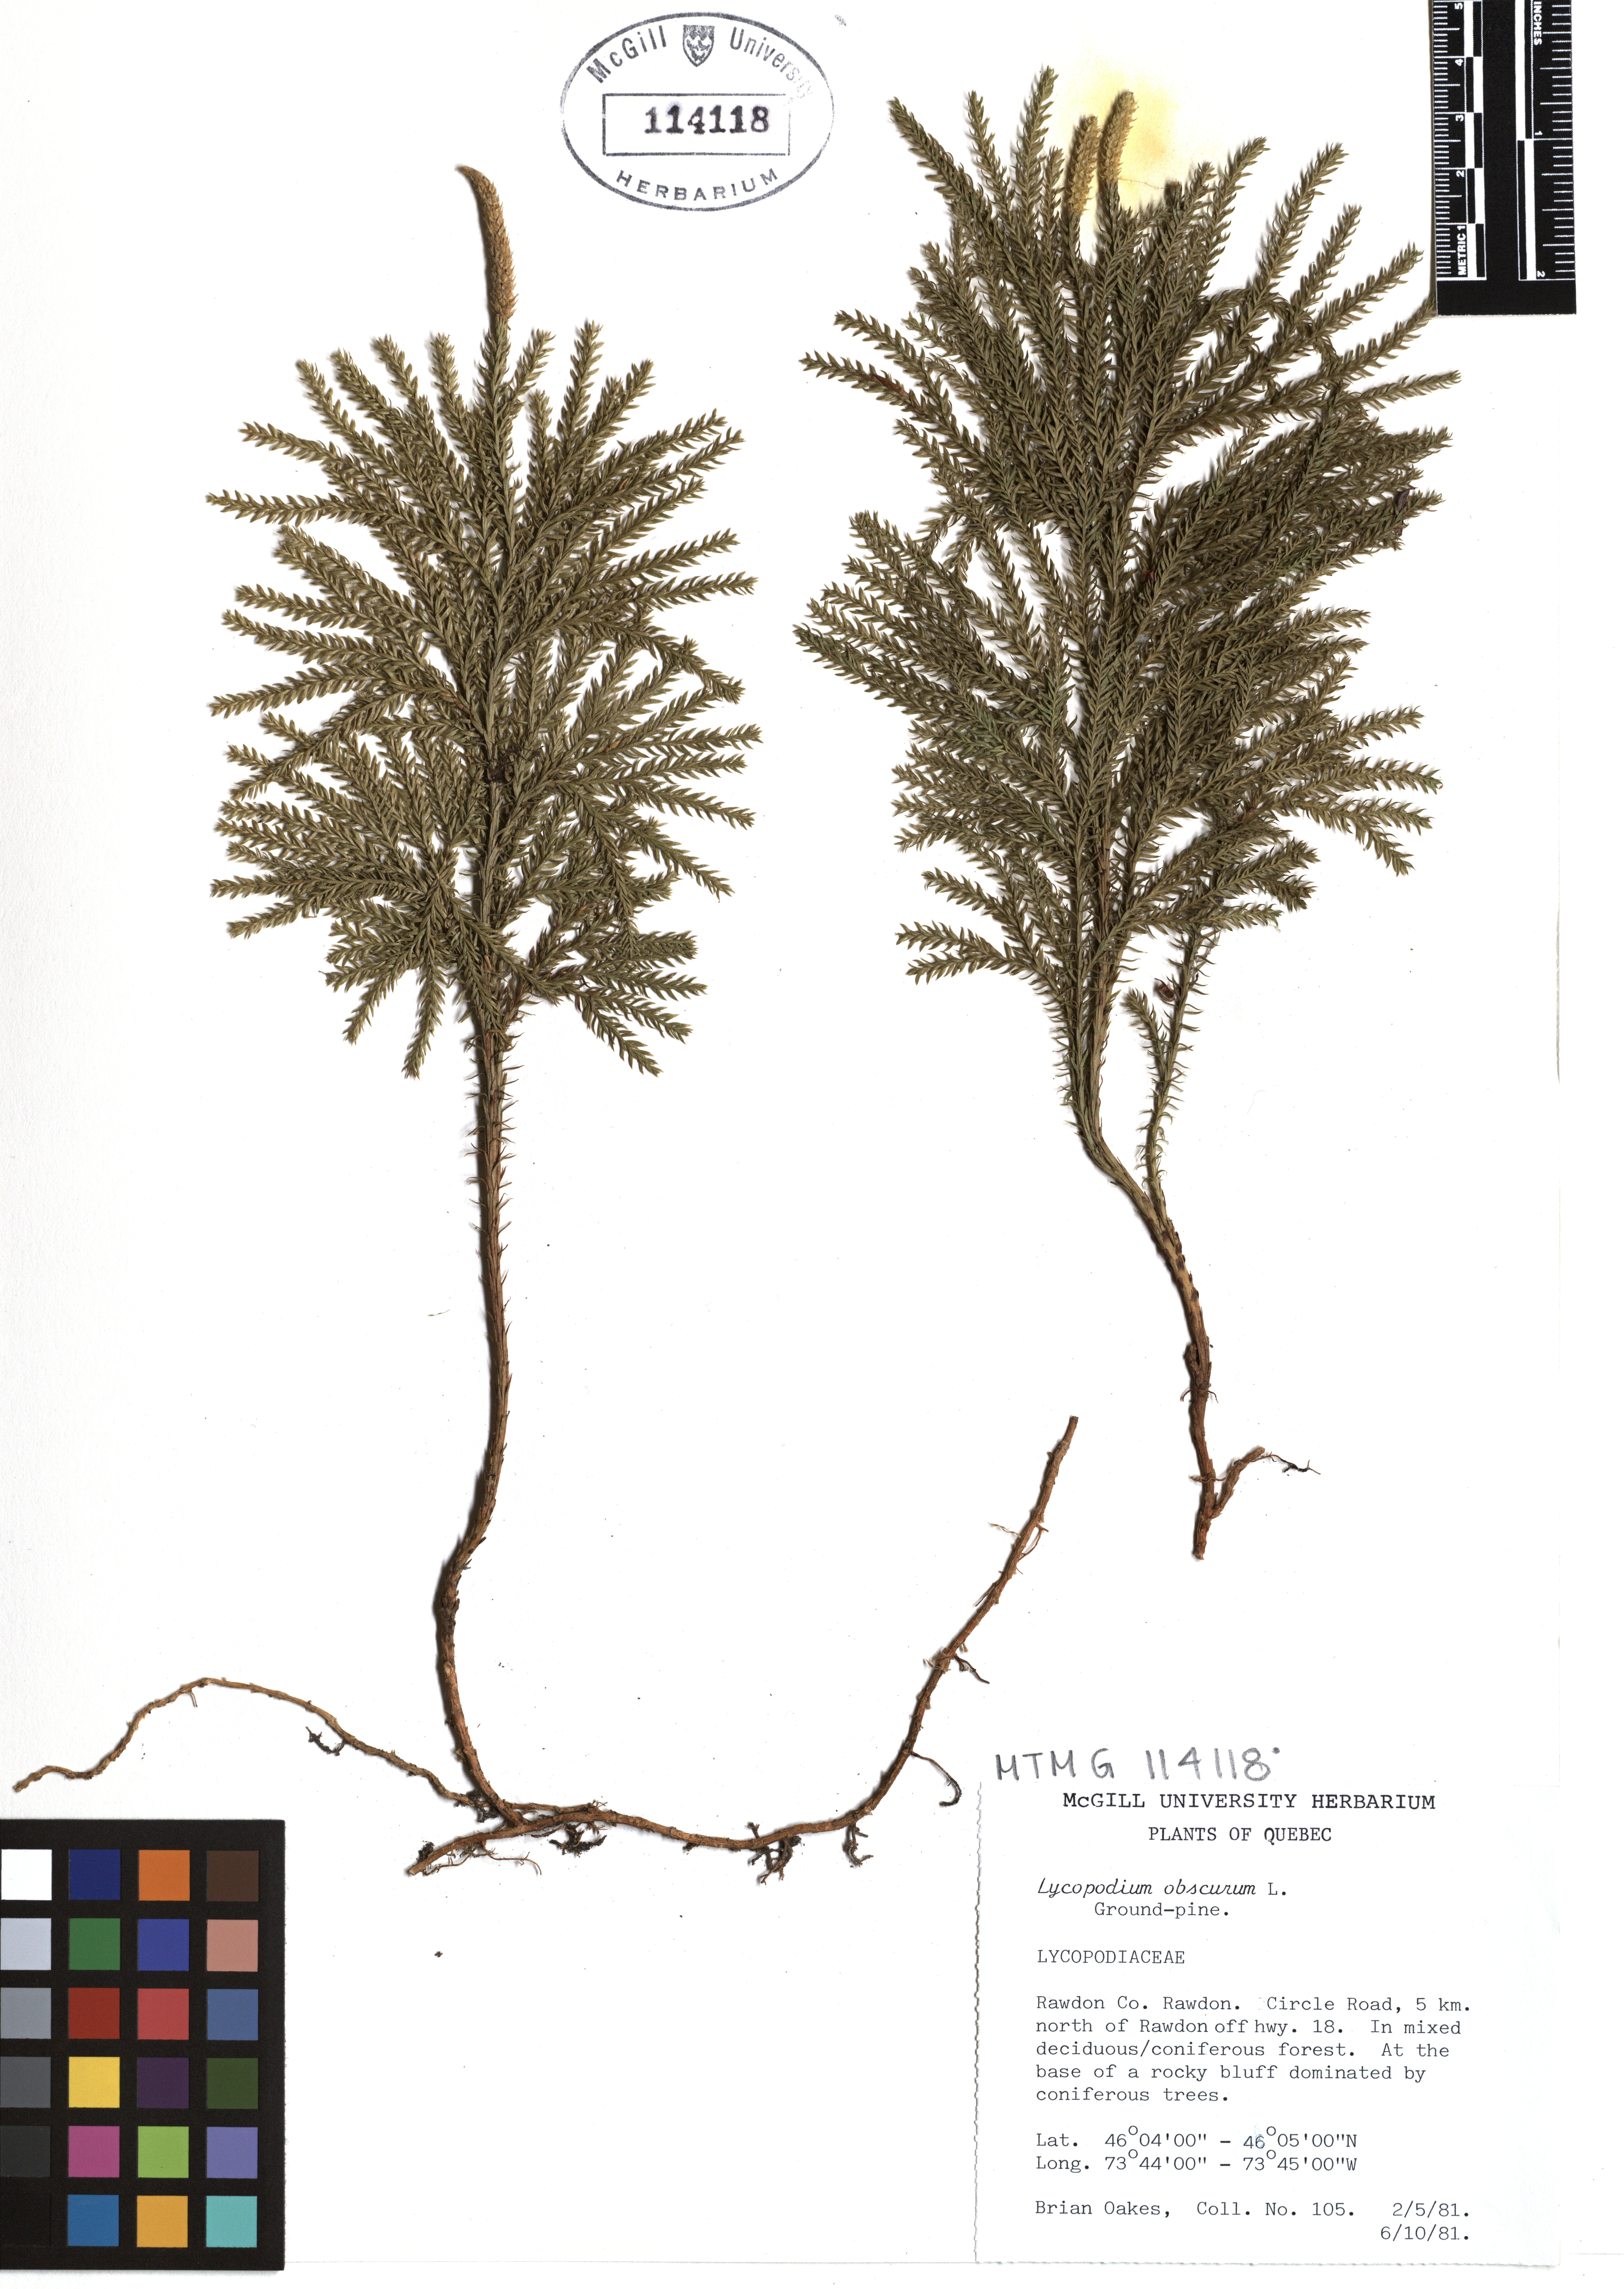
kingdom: Plantae
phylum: Tracheophyta
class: Lycopodiopsida
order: Lycopodiales
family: Lycopodiaceae
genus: Dendrolycopodium
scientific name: Dendrolycopodium obscurum
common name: Common ground-pine
